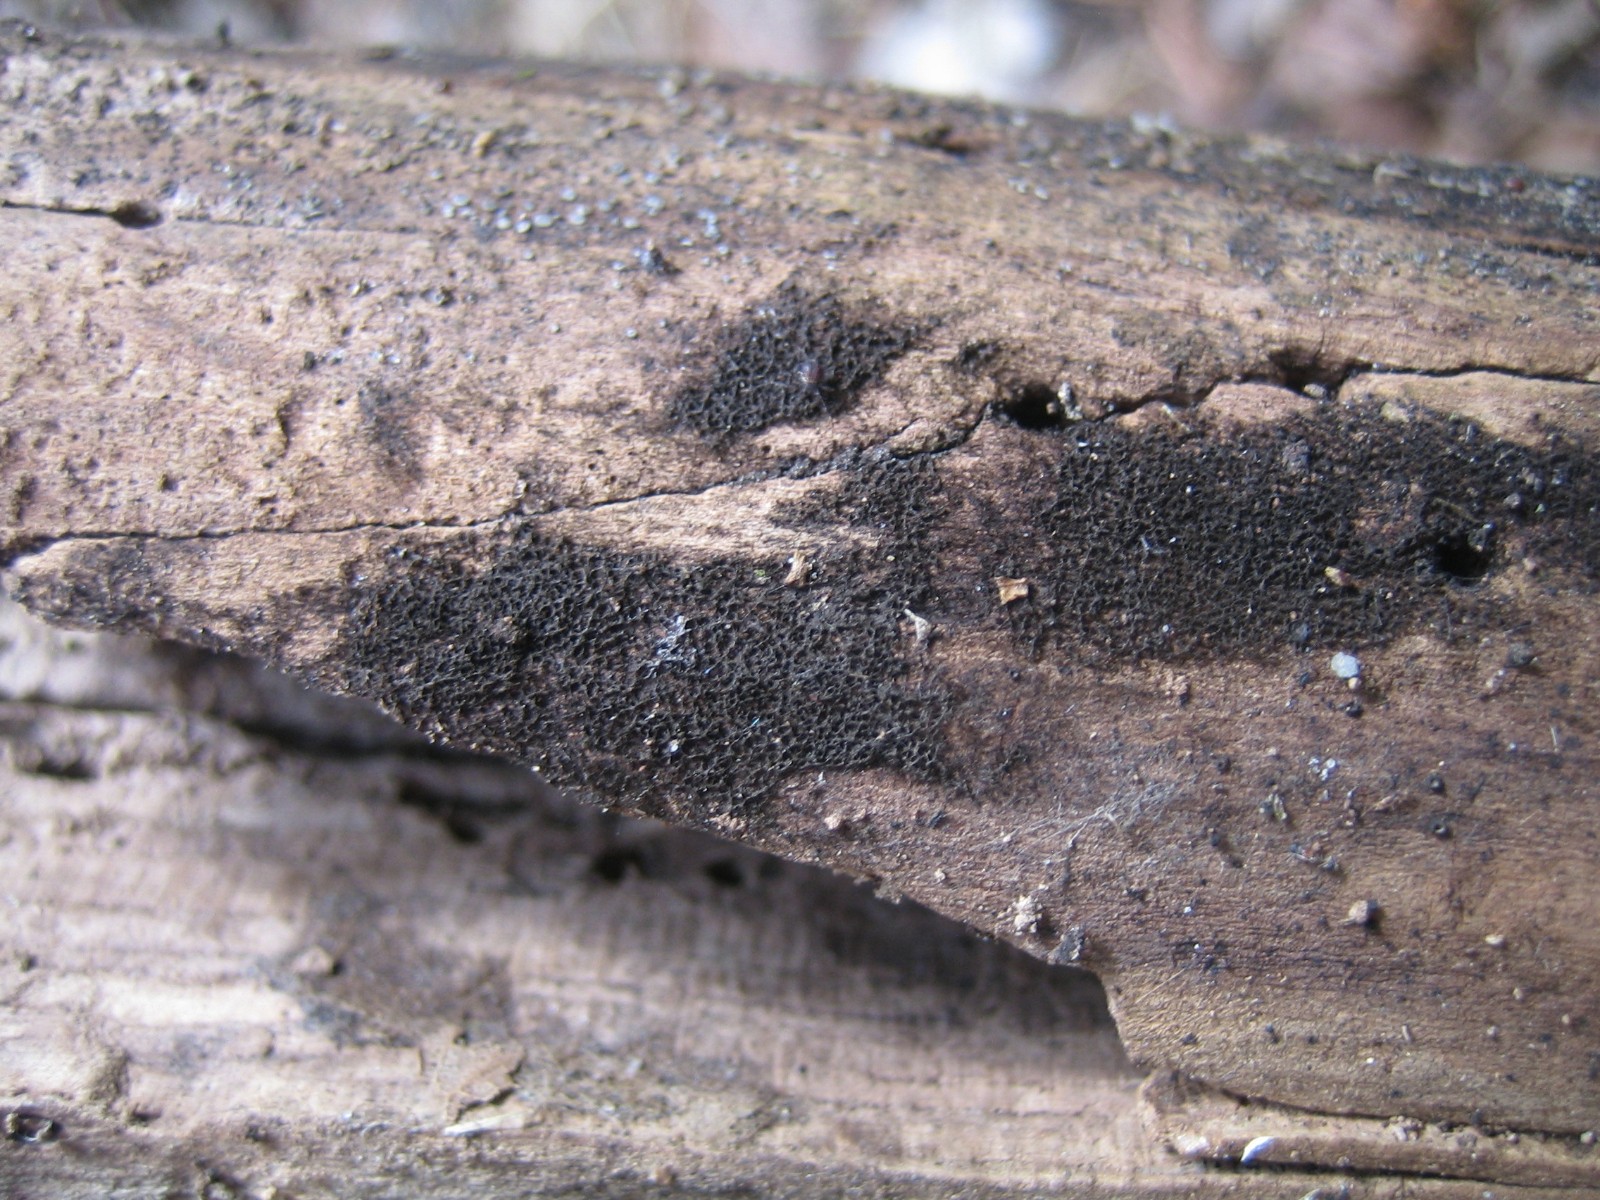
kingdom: Fungi
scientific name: Fungi
